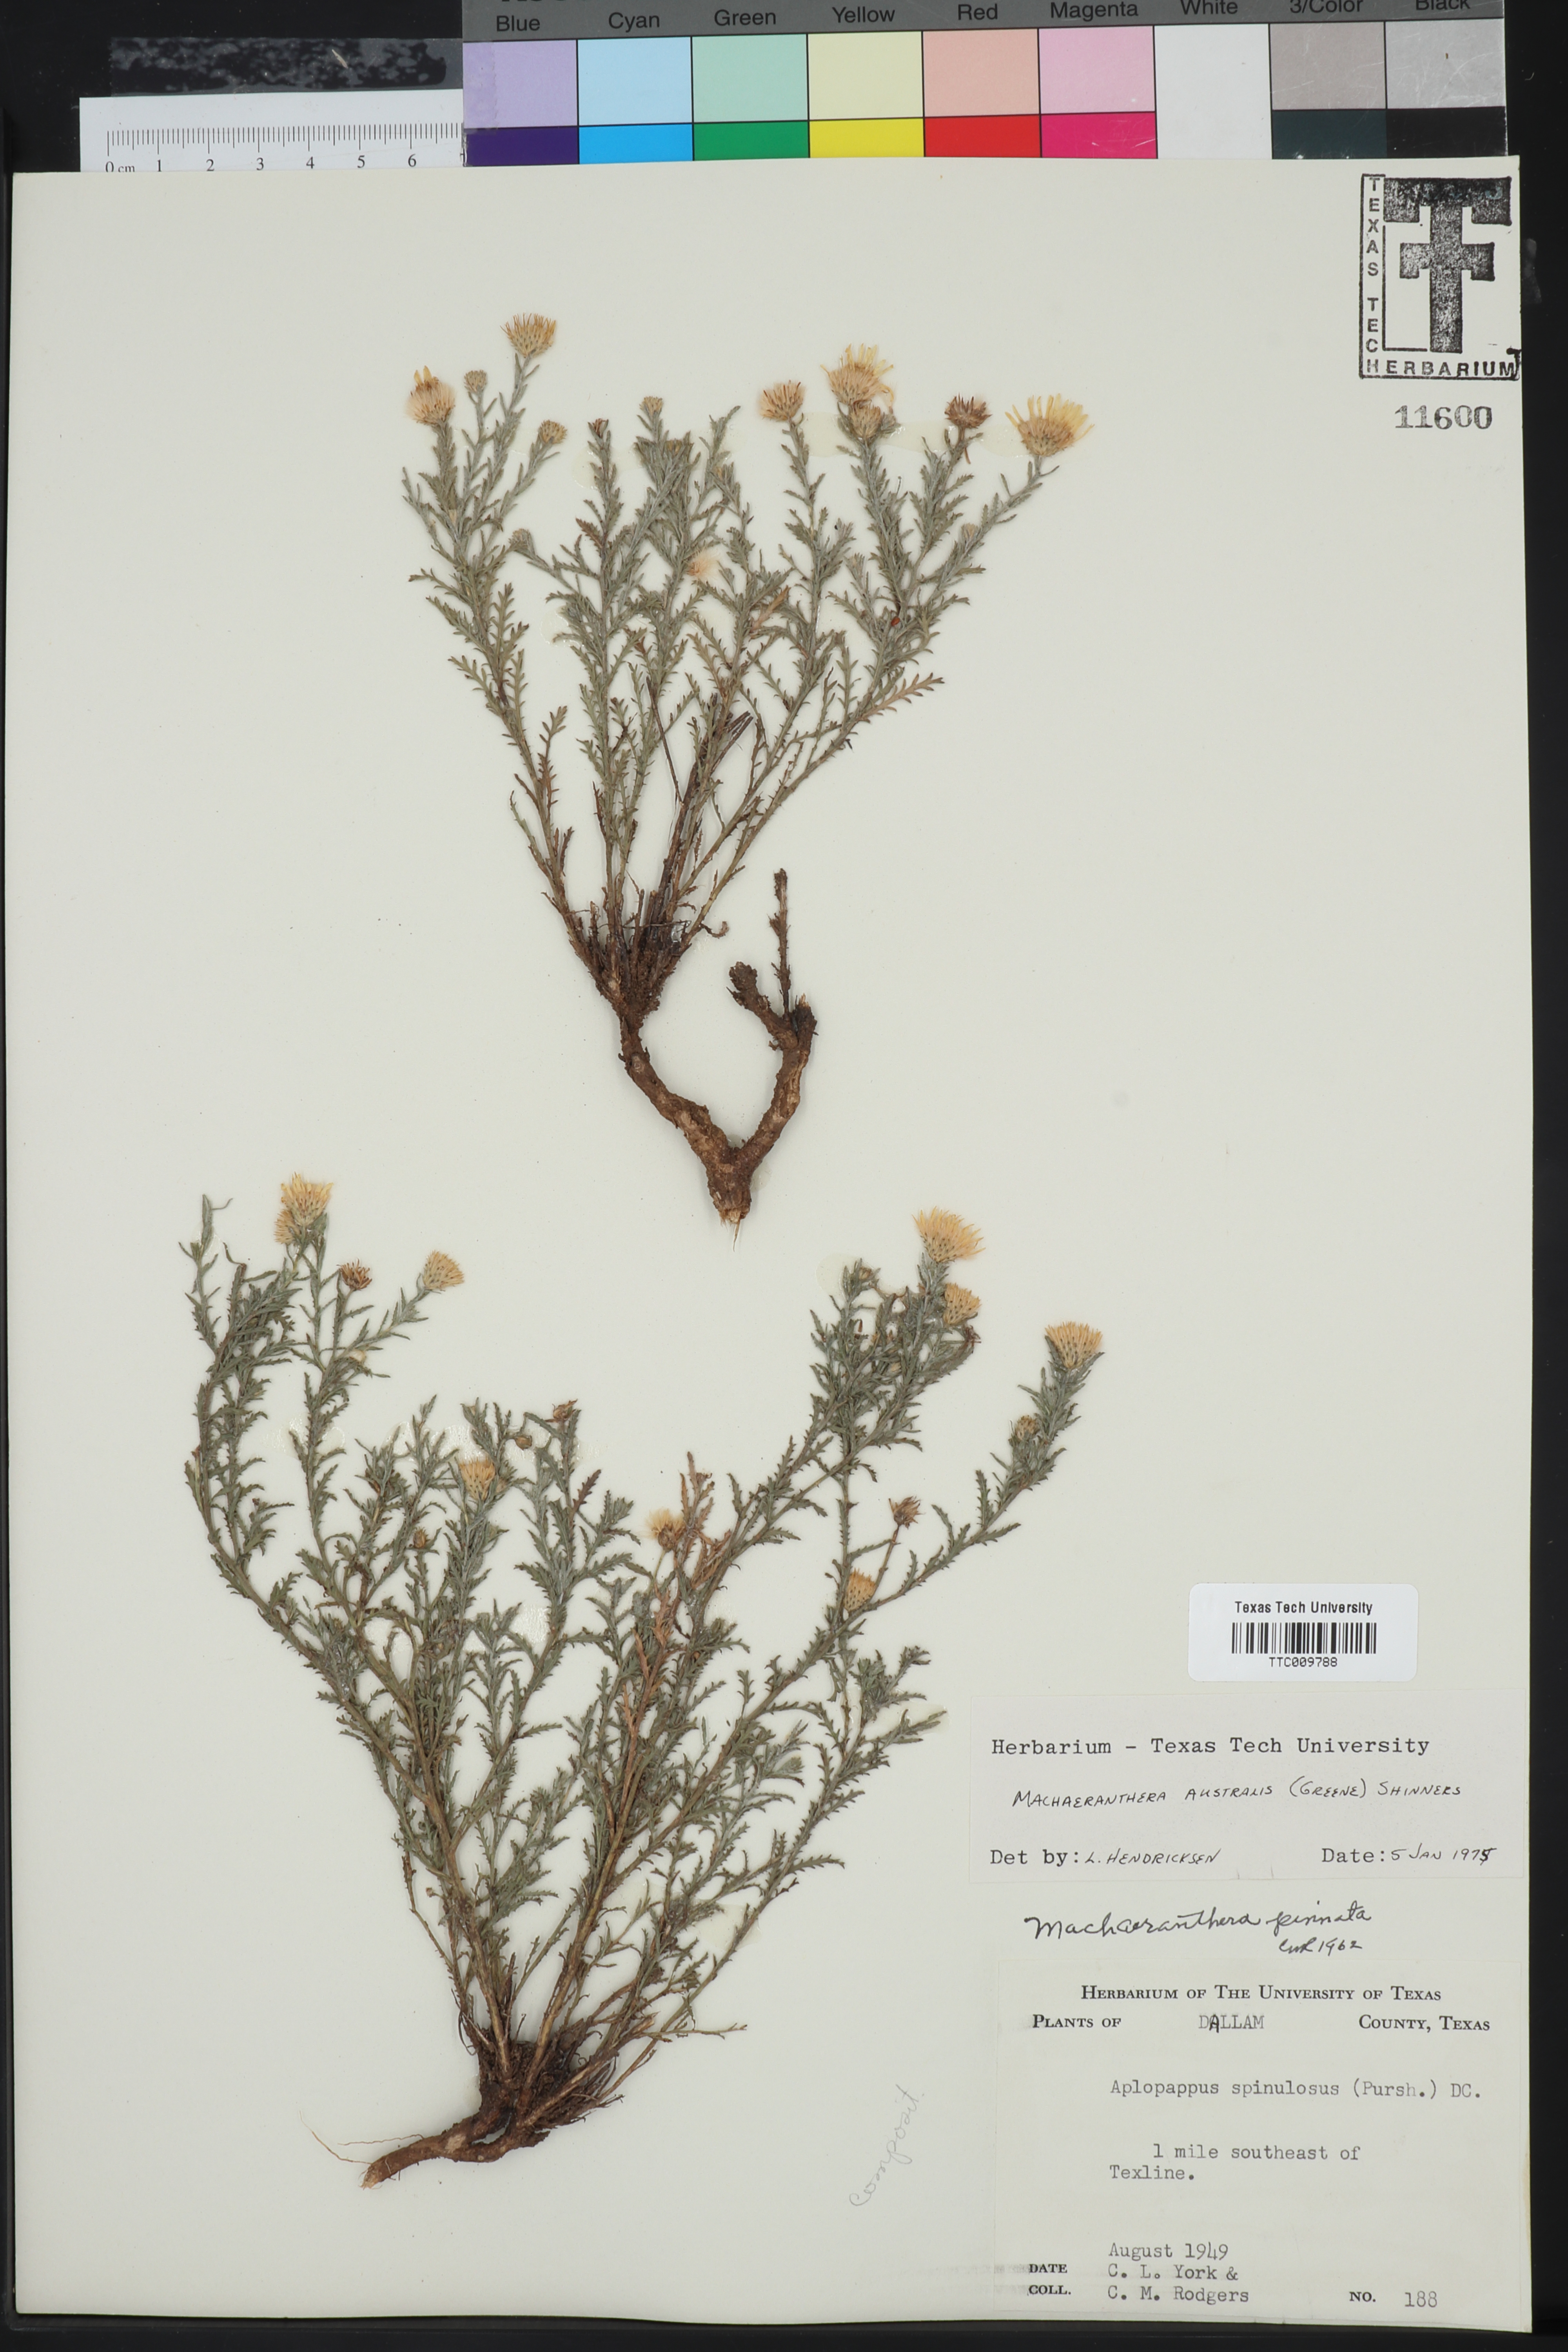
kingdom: Plantae
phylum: Tracheophyta
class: Magnoliopsida
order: Asterales
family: Asteraceae
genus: Xanthisma
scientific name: Xanthisma spinulosum
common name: Spiny goldenweed
